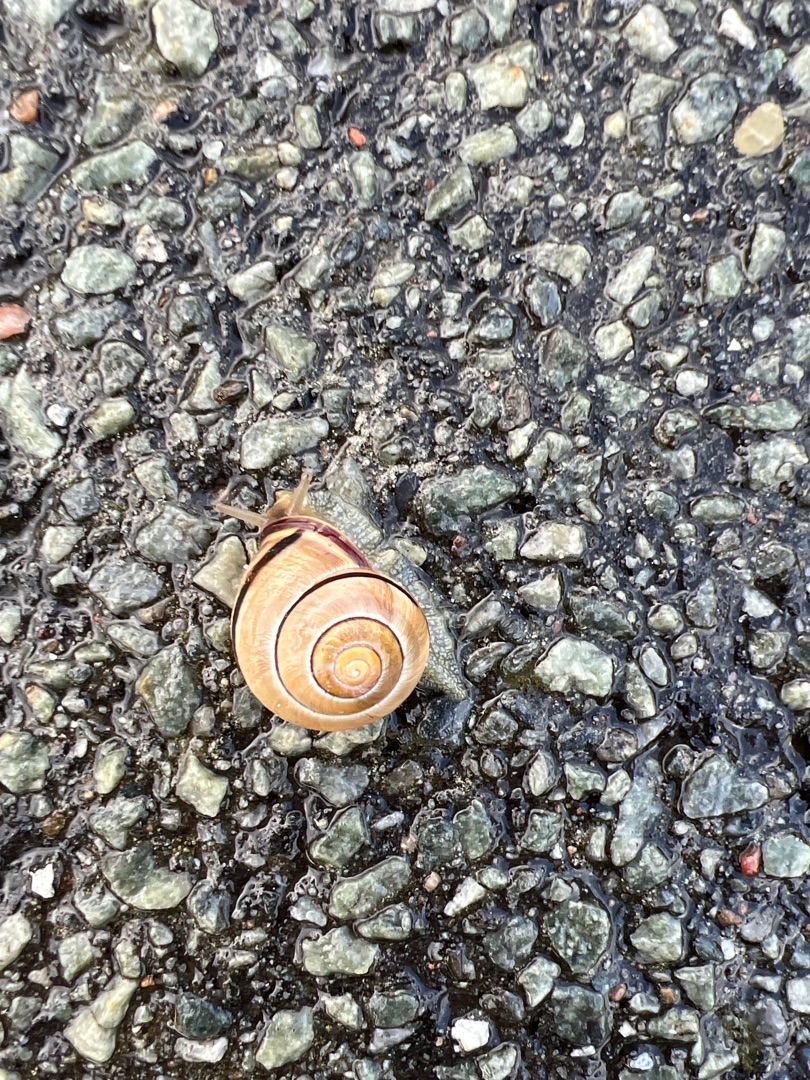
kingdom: Animalia
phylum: Mollusca
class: Gastropoda
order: Stylommatophora
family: Helicidae
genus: Cepaea
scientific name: Cepaea nemoralis
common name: Lundsnegl
